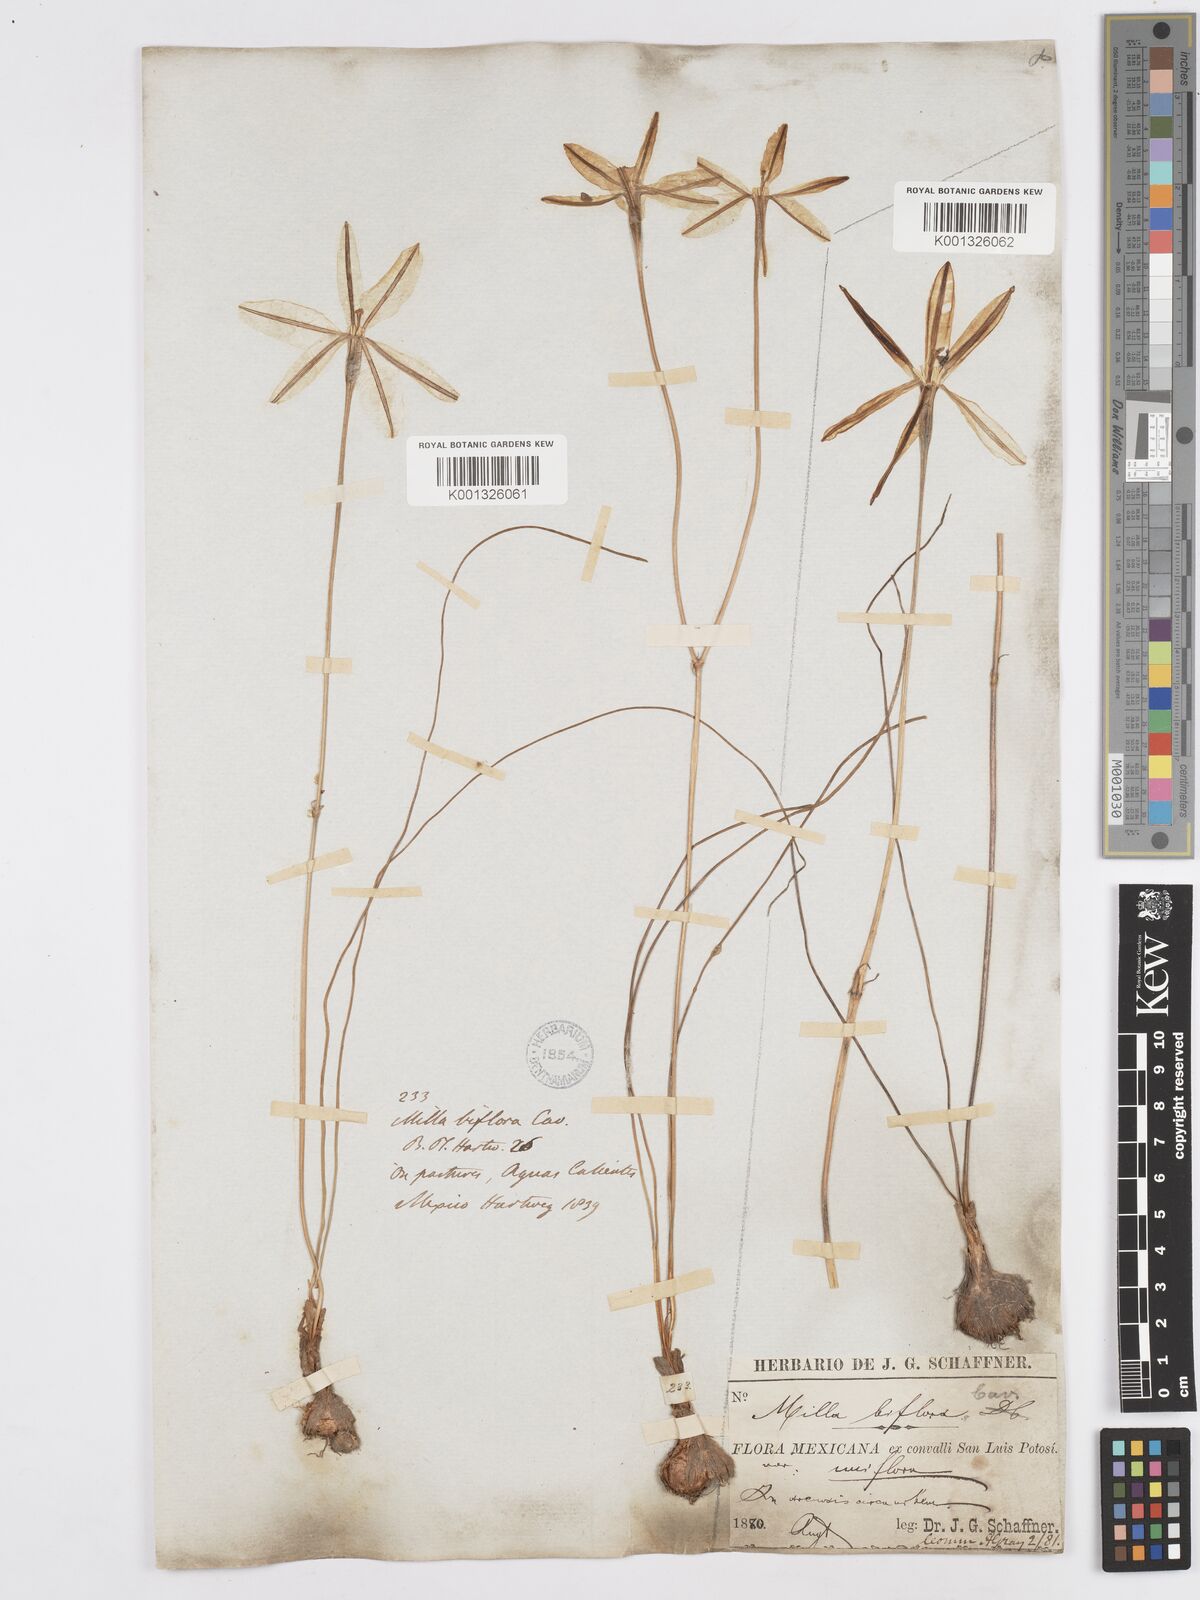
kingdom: Plantae
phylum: Tracheophyta
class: Liliopsida
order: Asparagales
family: Asparagaceae
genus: Milla
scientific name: Milla biflora
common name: Mexican-star
